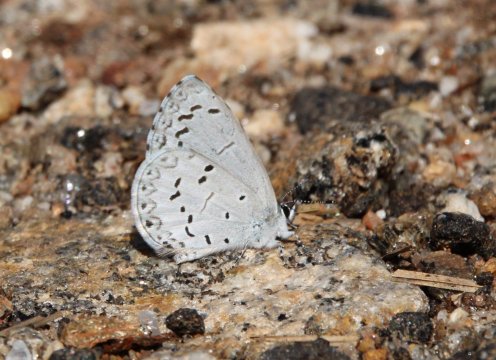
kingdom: Animalia
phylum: Arthropoda
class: Insecta
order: Lepidoptera
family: Lycaenidae
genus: Celastrina
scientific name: Celastrina
